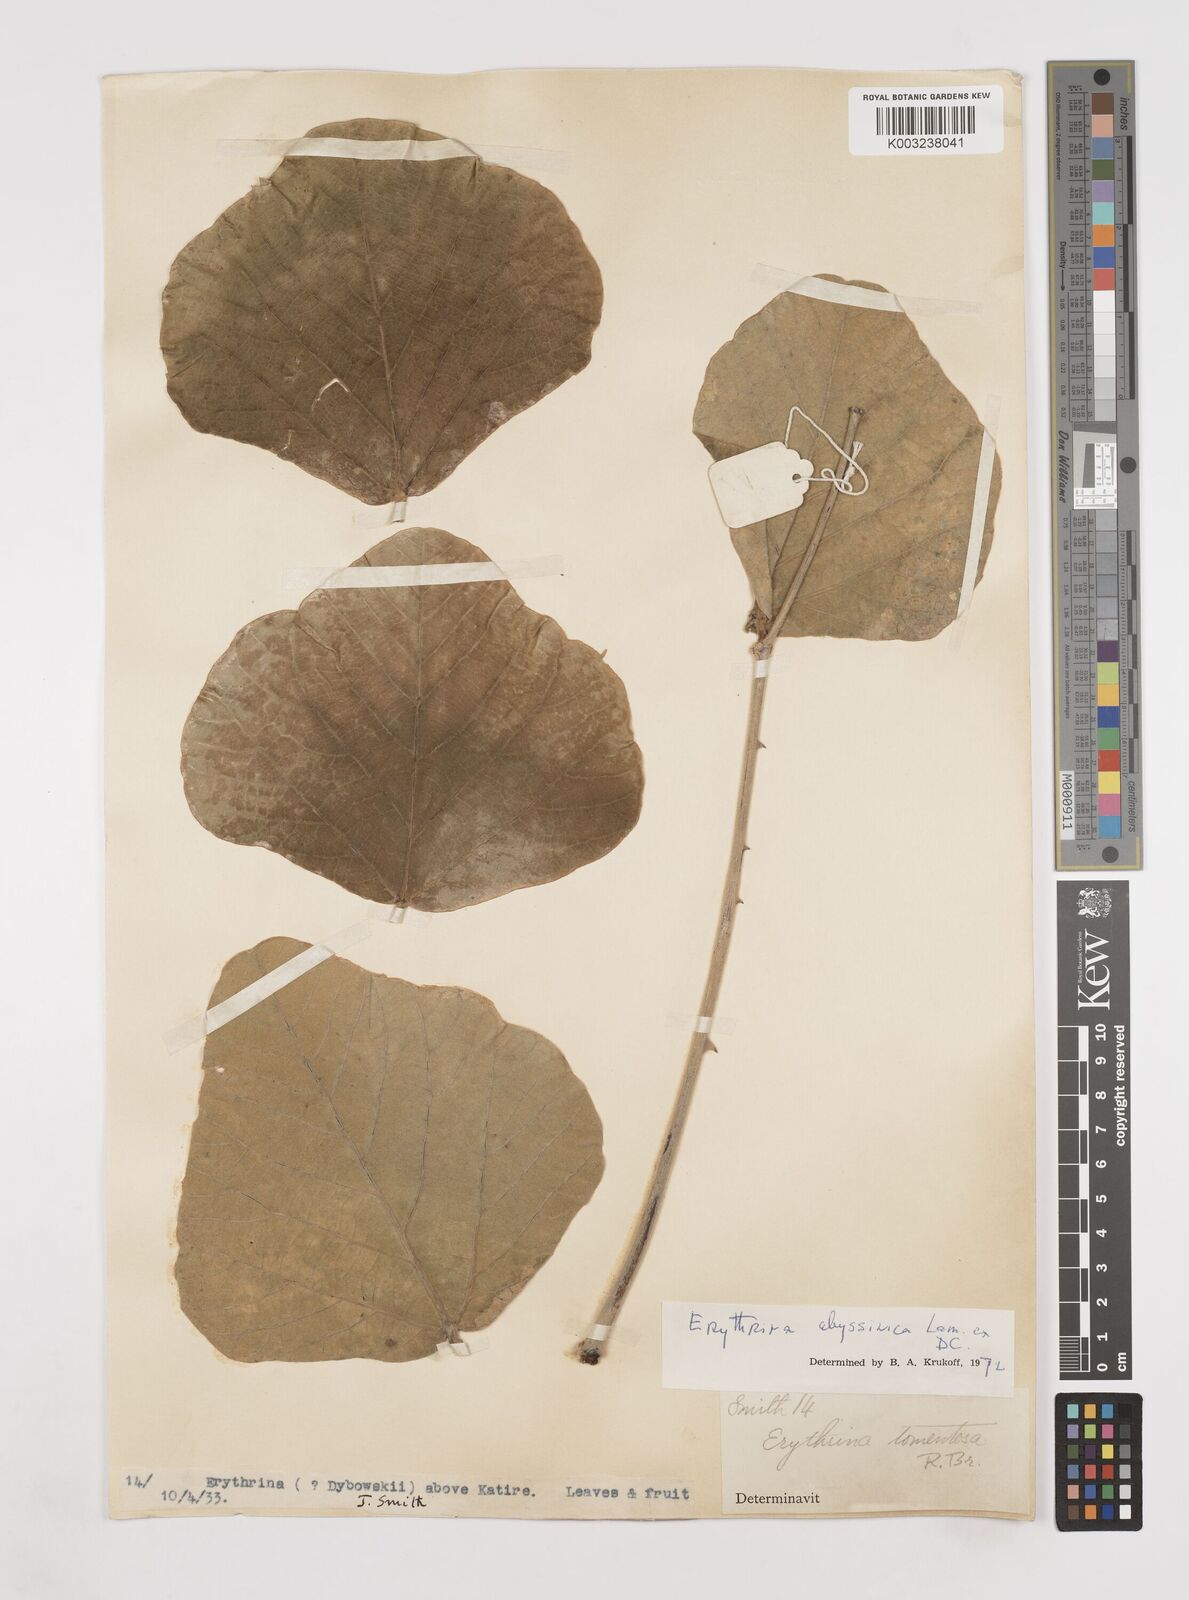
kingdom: Plantae
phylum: Tracheophyta
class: Magnoliopsida
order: Fabales
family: Fabaceae
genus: Erythrina
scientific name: Erythrina abyssinica
